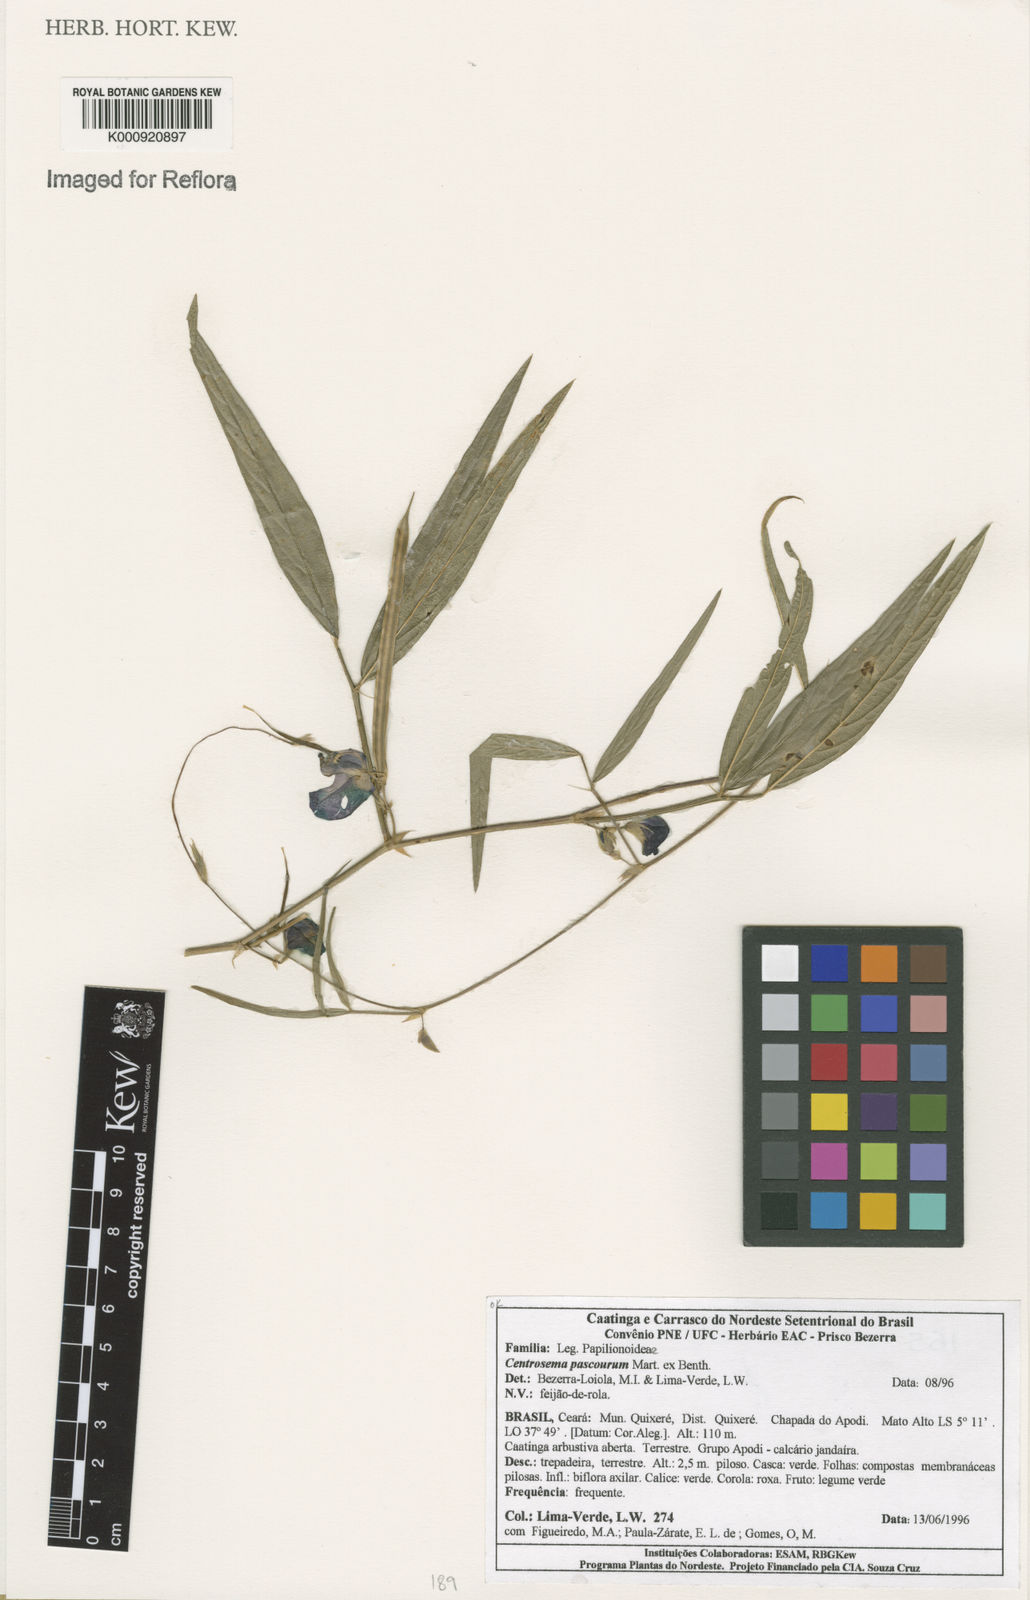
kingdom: Plantae
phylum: Tracheophyta
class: Magnoliopsida
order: Fabales
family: Fabaceae
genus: Centrosema
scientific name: Centrosema pascuorum
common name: Centurion
